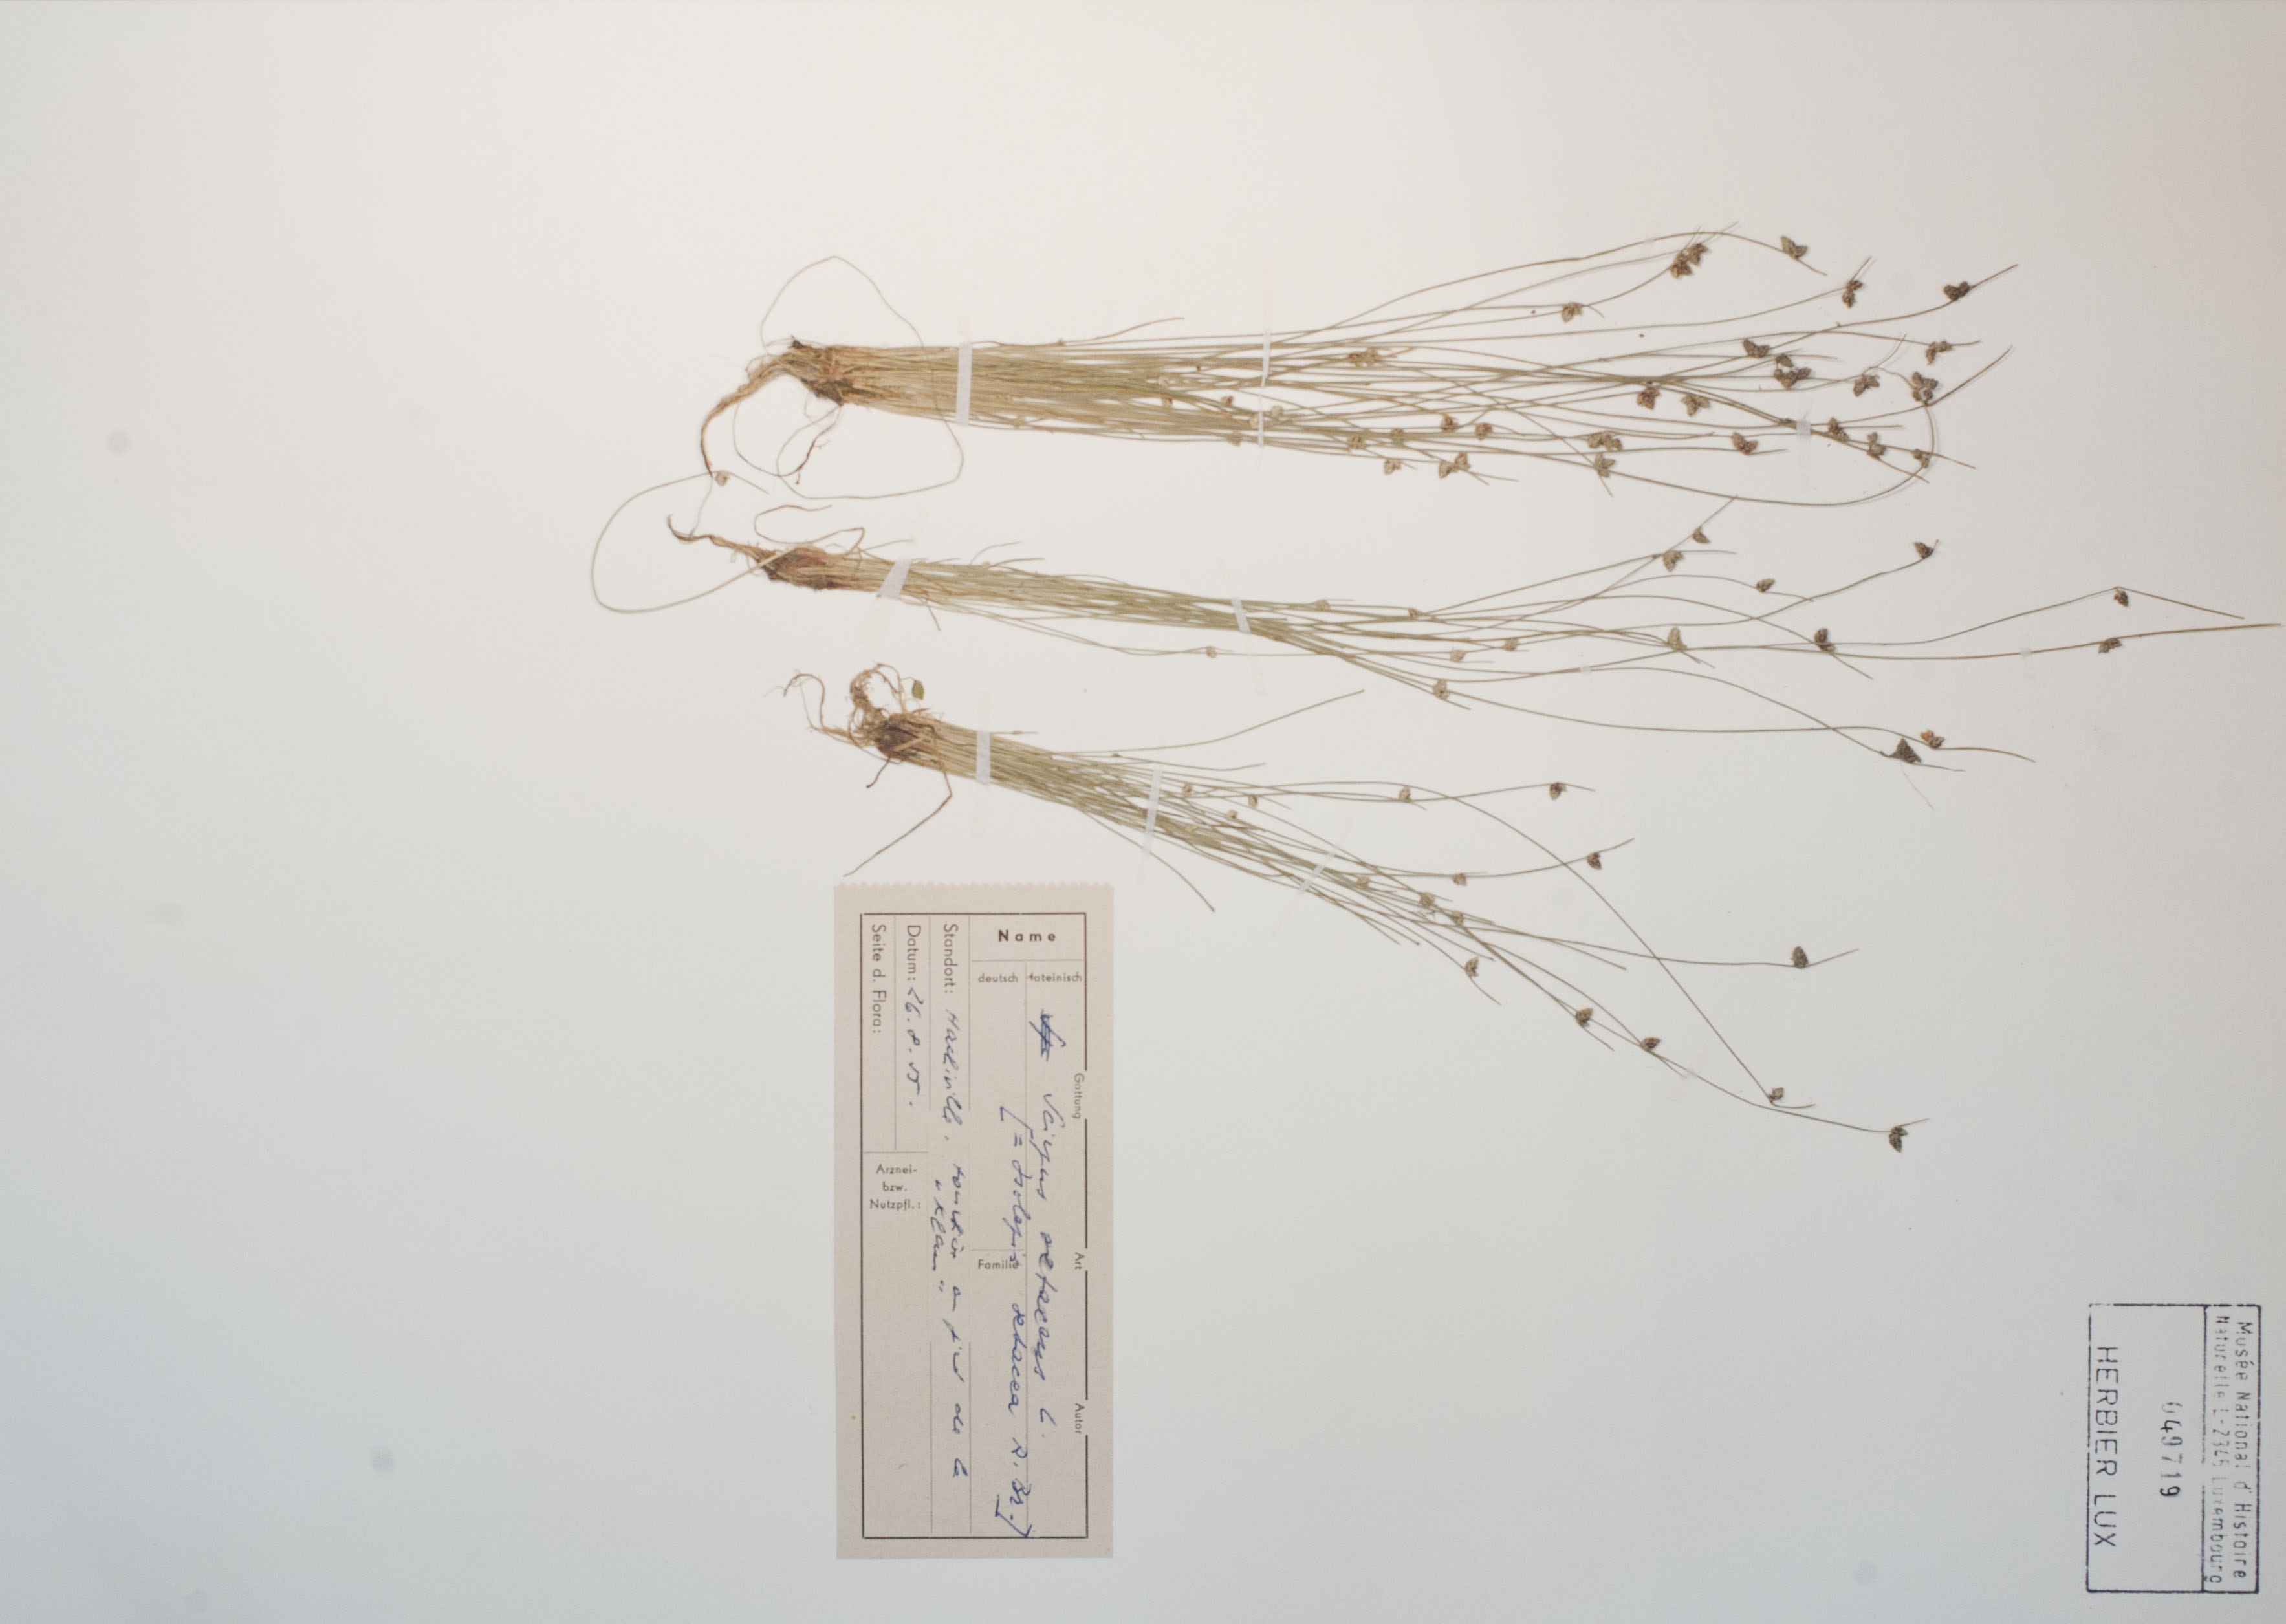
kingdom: Plantae
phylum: Tracheophyta
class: Liliopsida
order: Poales
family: Cyperaceae
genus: Isolepis
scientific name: Isolepis setacea
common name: Bristle club-rush
